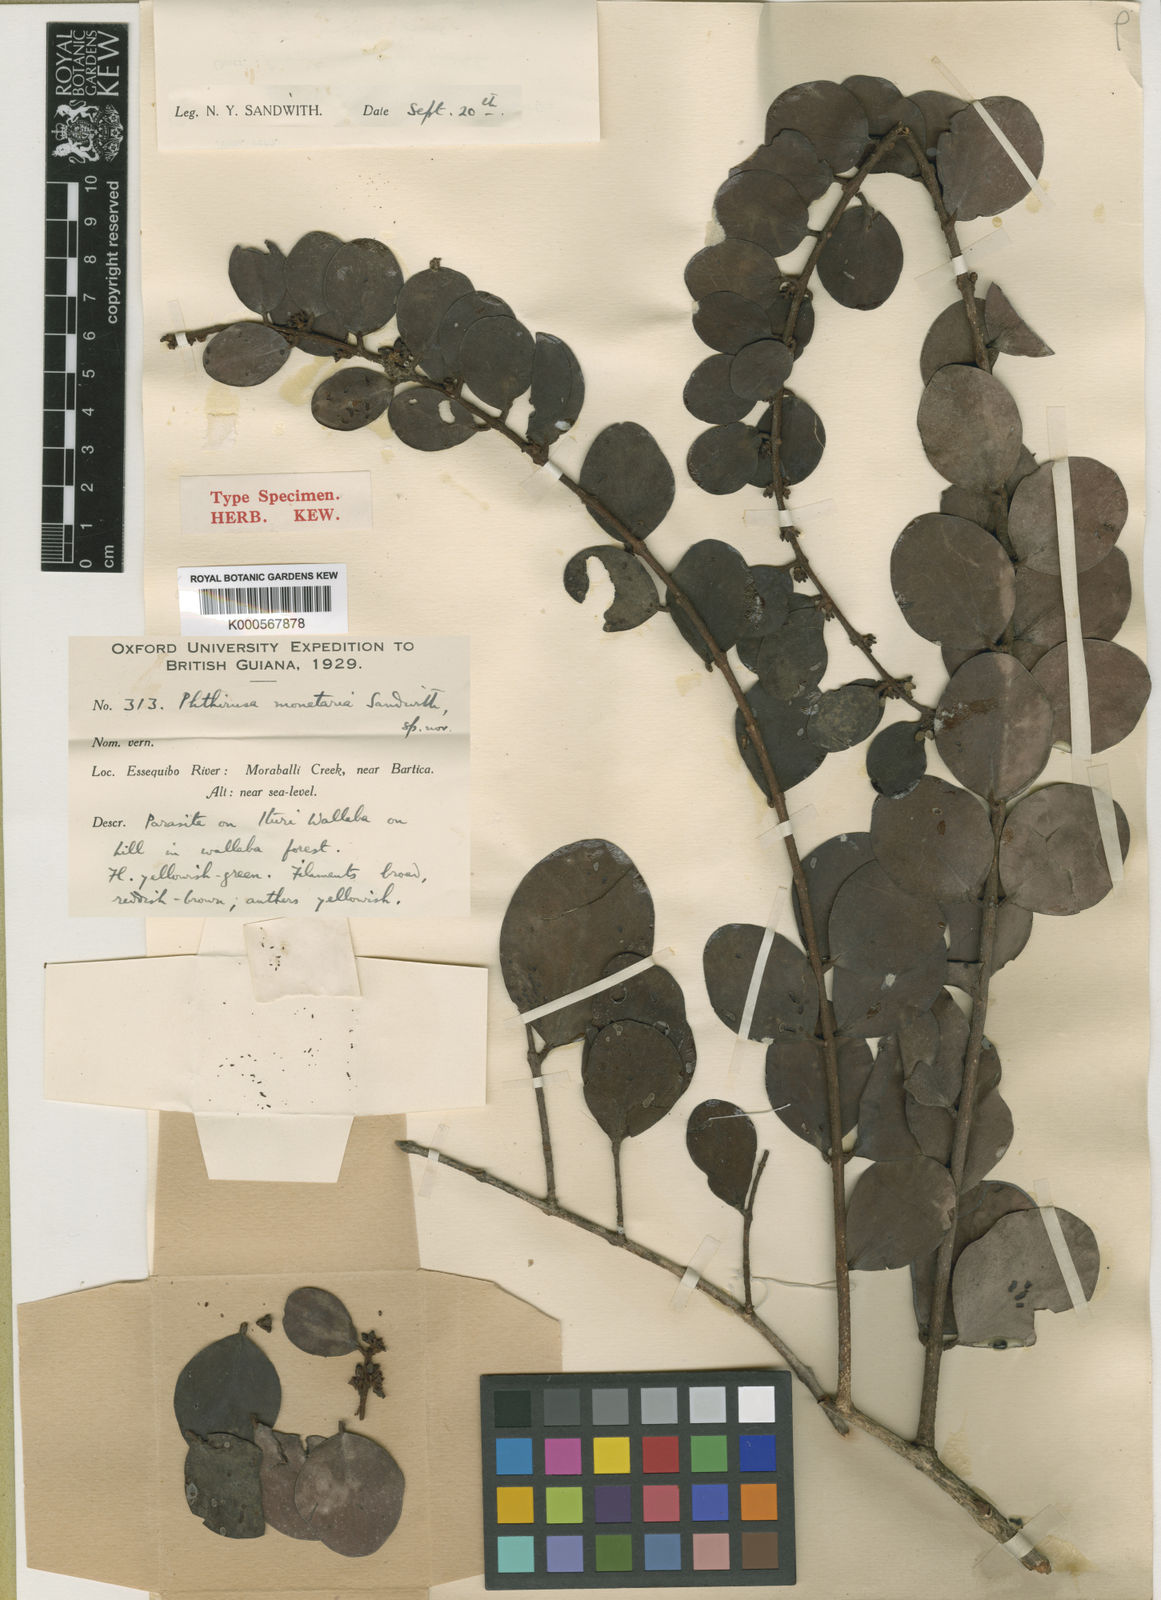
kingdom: Plantae
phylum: Tracheophyta
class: Magnoliopsida
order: Santalales
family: Loranthaceae
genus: Phthirusa
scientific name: Phthirusa monetaria
